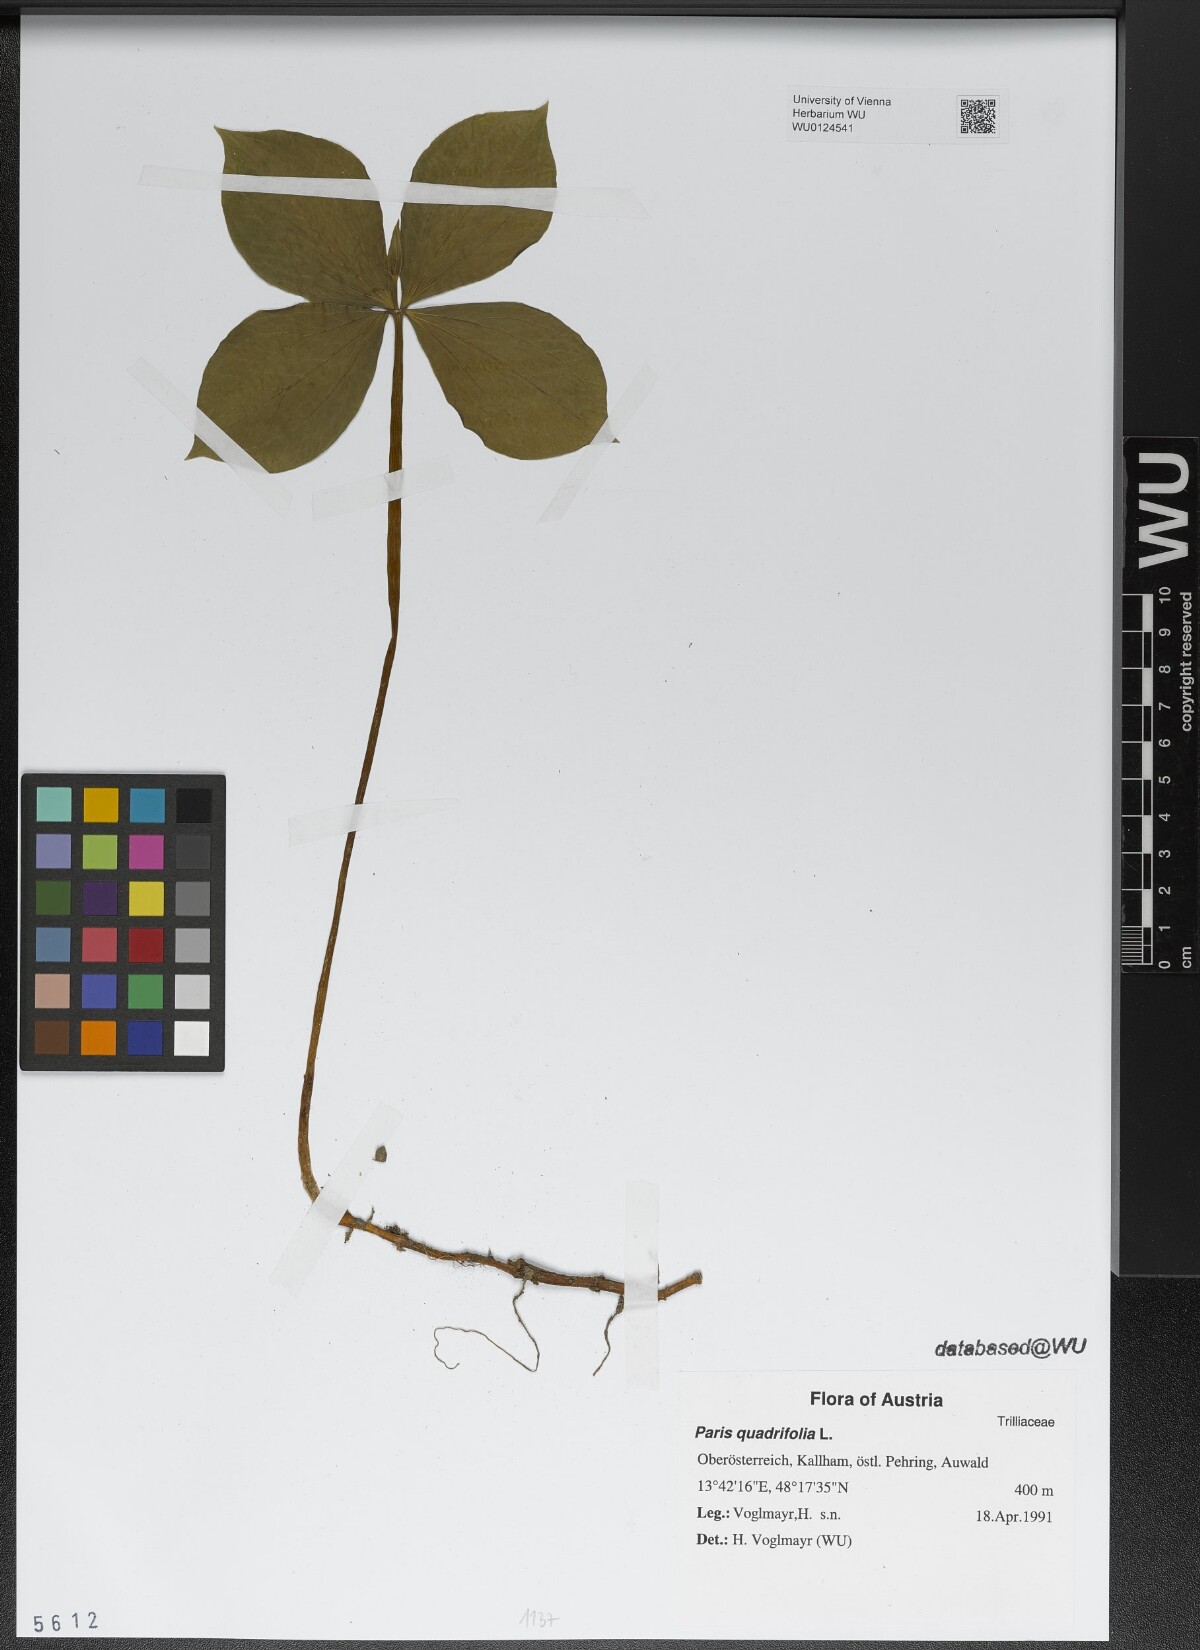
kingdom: Plantae
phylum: Tracheophyta
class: Liliopsida
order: Liliales
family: Melanthiaceae
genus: Paris
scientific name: Paris quadrifolia
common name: Herb-paris
